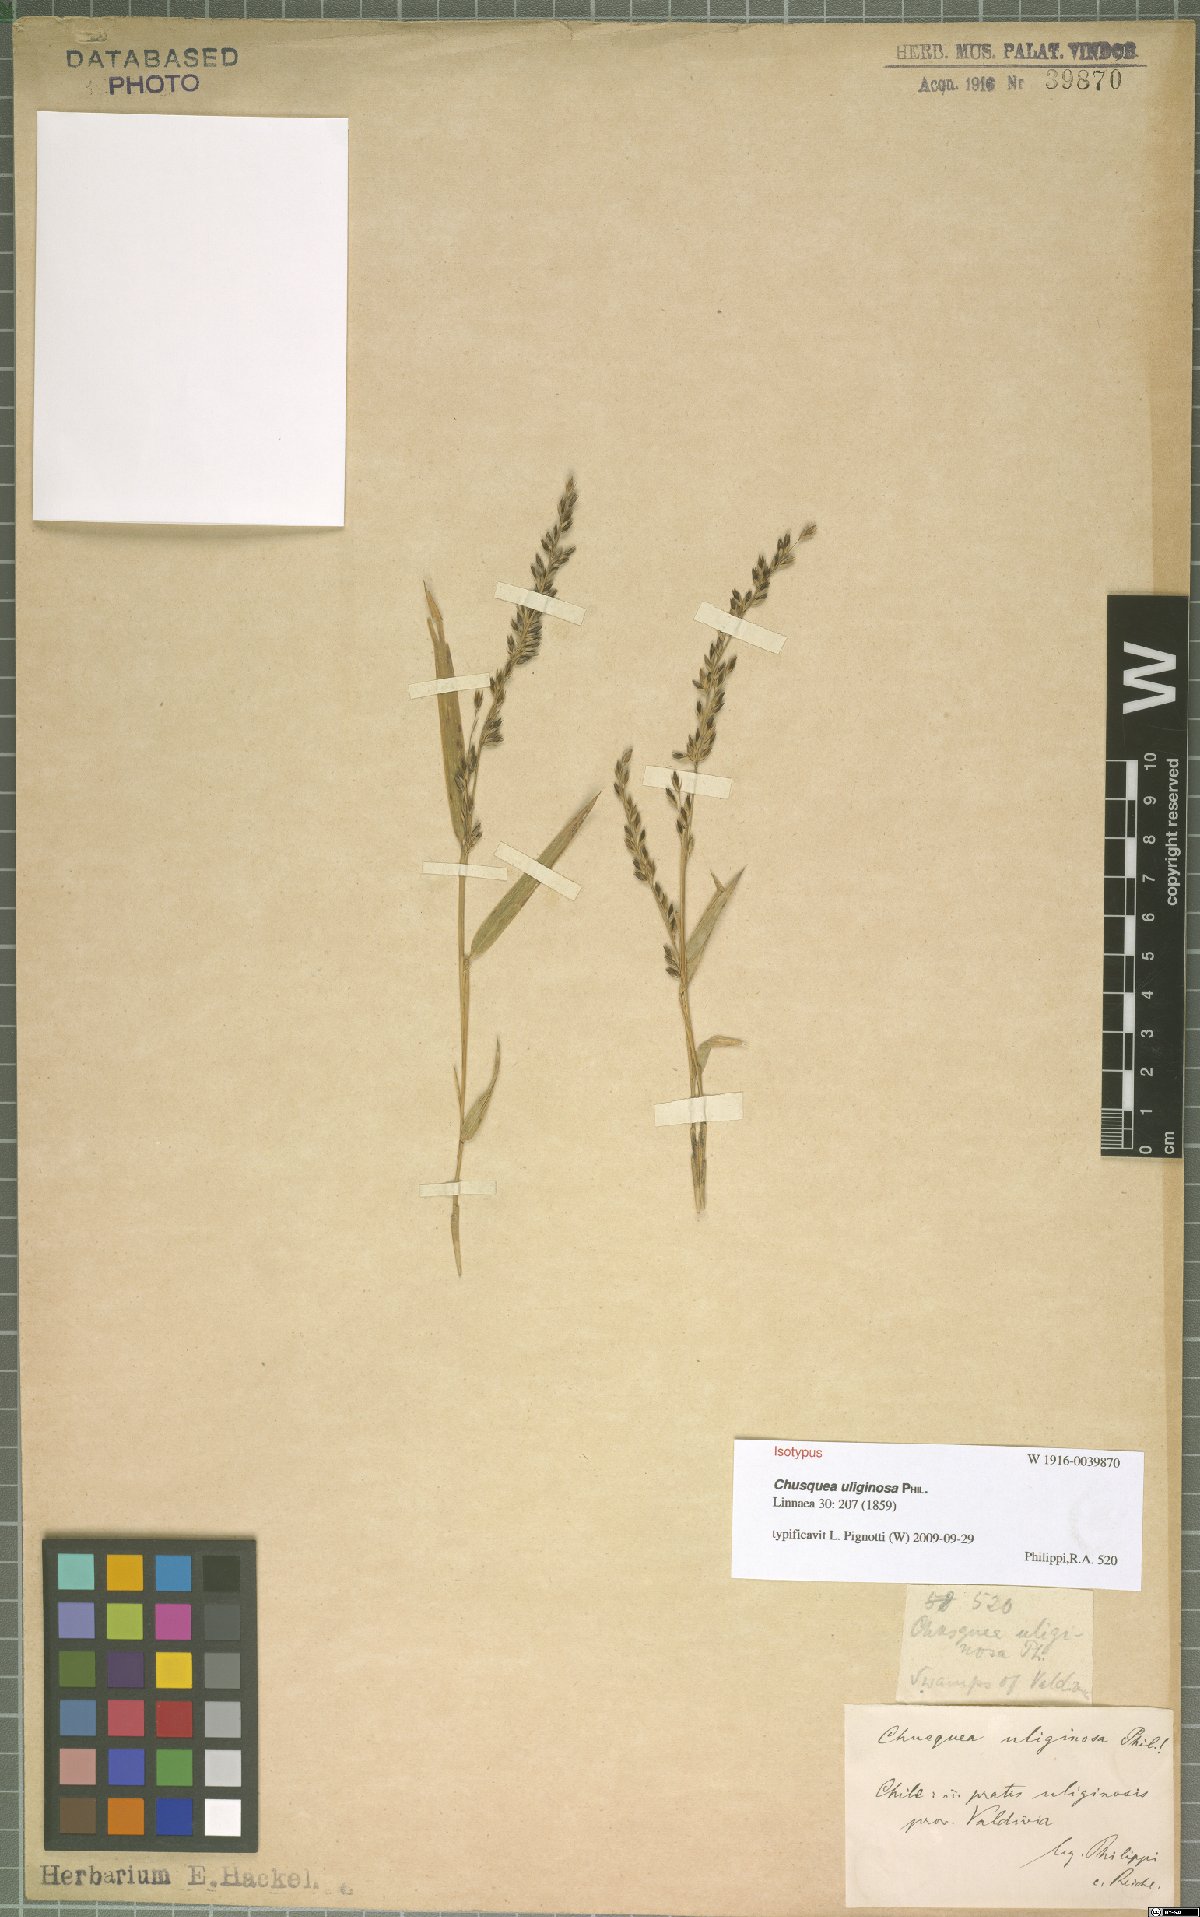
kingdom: Plantae
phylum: Tracheophyta
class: Liliopsida
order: Poales
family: Poaceae
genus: Chusquea
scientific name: Chusquea uliginosa
